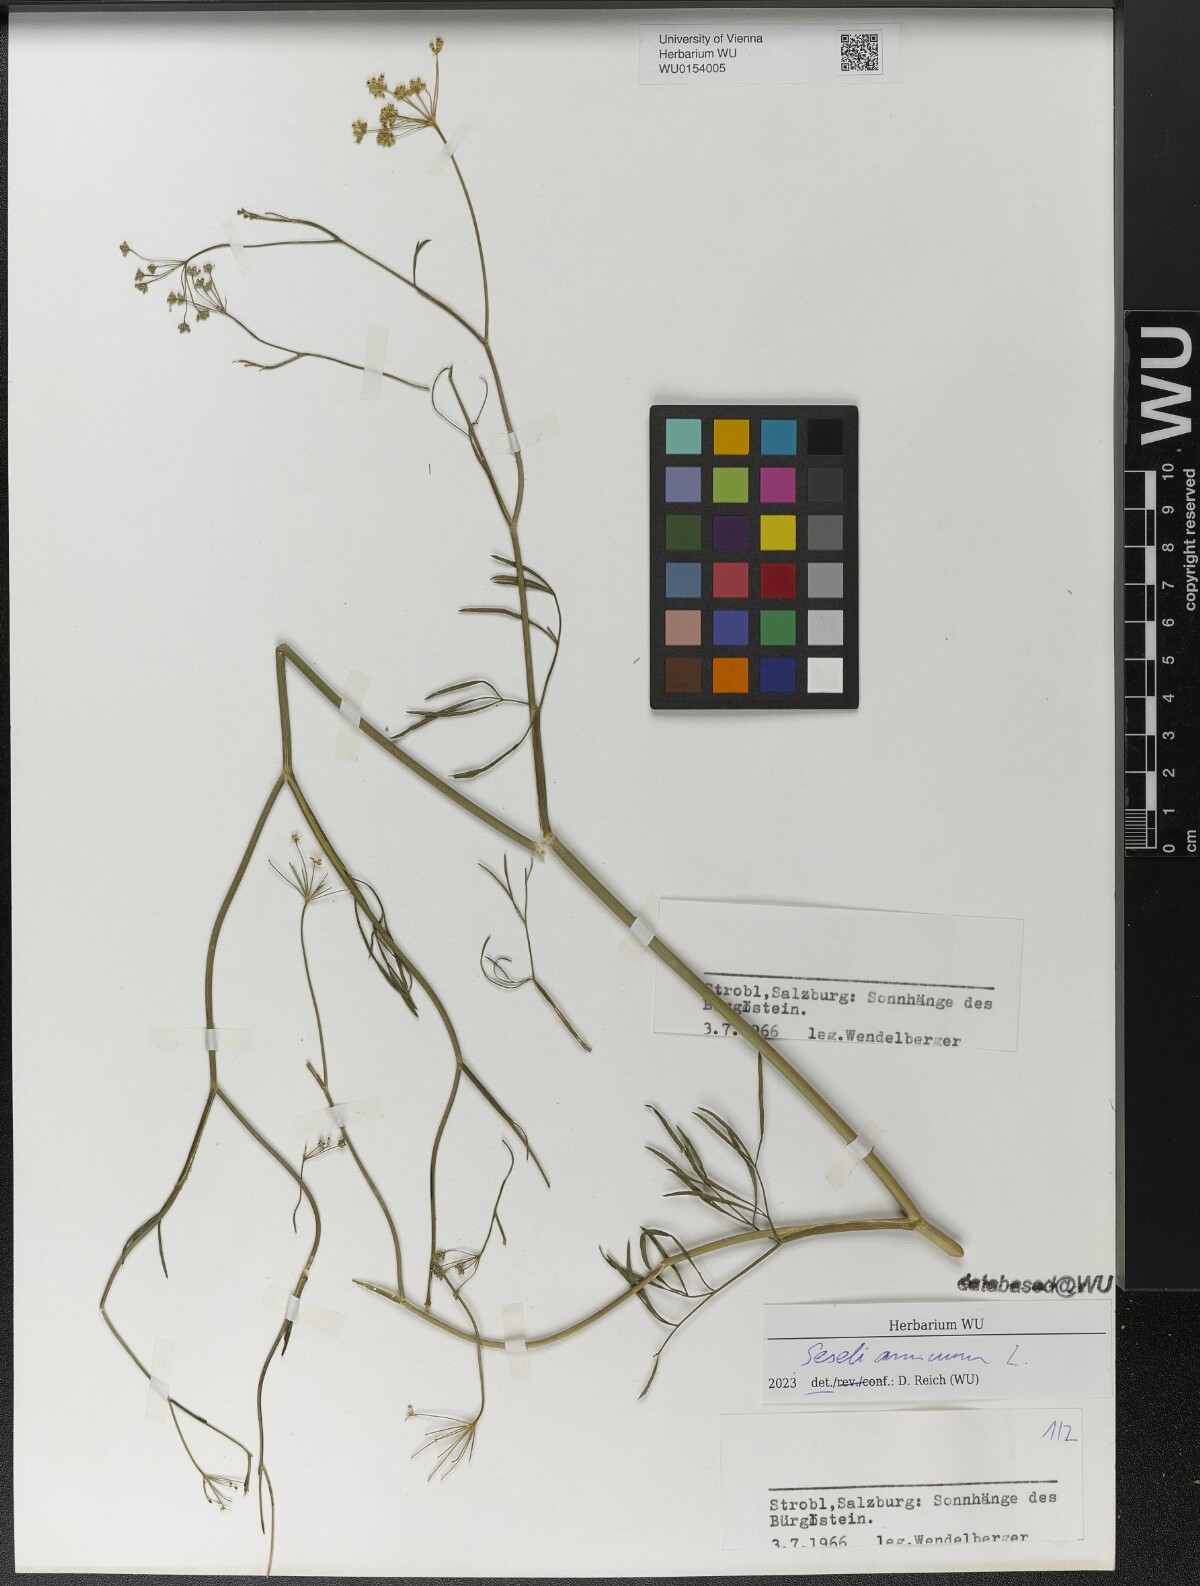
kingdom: Plantae
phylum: Tracheophyta
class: Magnoliopsida
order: Apiales
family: Apiaceae
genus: Seseli
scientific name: Seseli annuum
